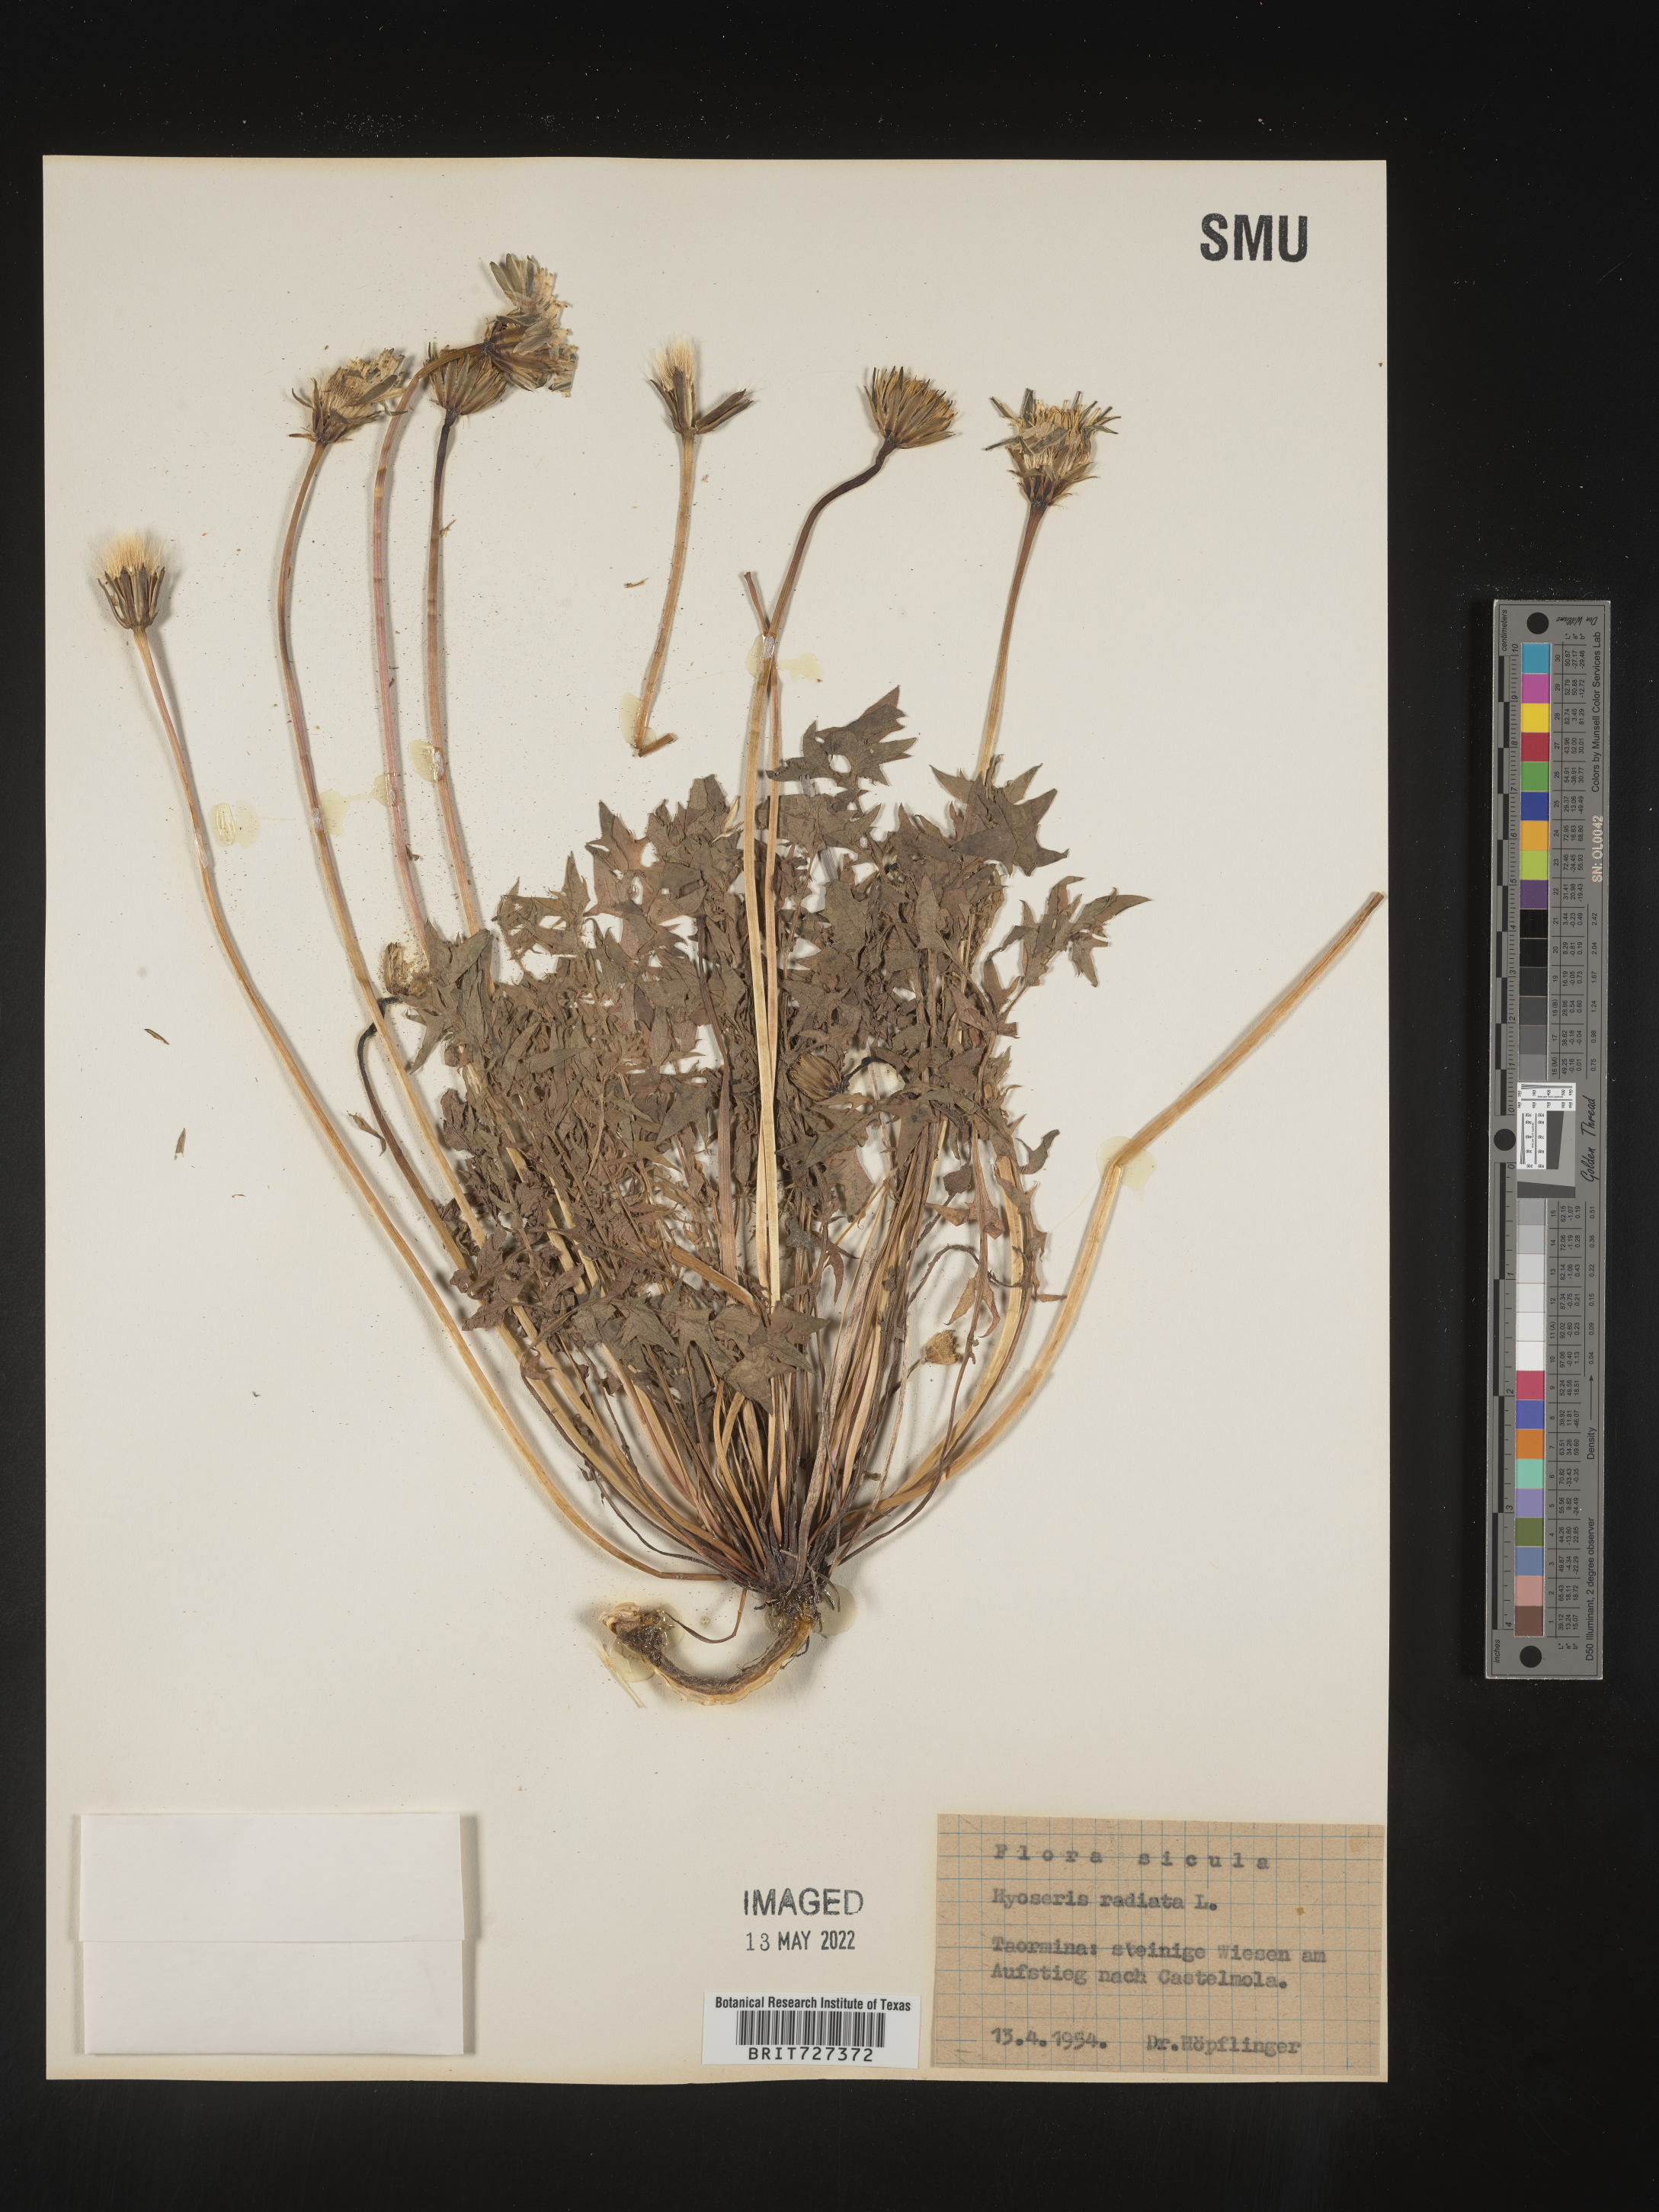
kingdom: Plantae
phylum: Tracheophyta
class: Magnoliopsida
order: Asterales
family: Asteraceae
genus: Hyoseris
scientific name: Hyoseris
